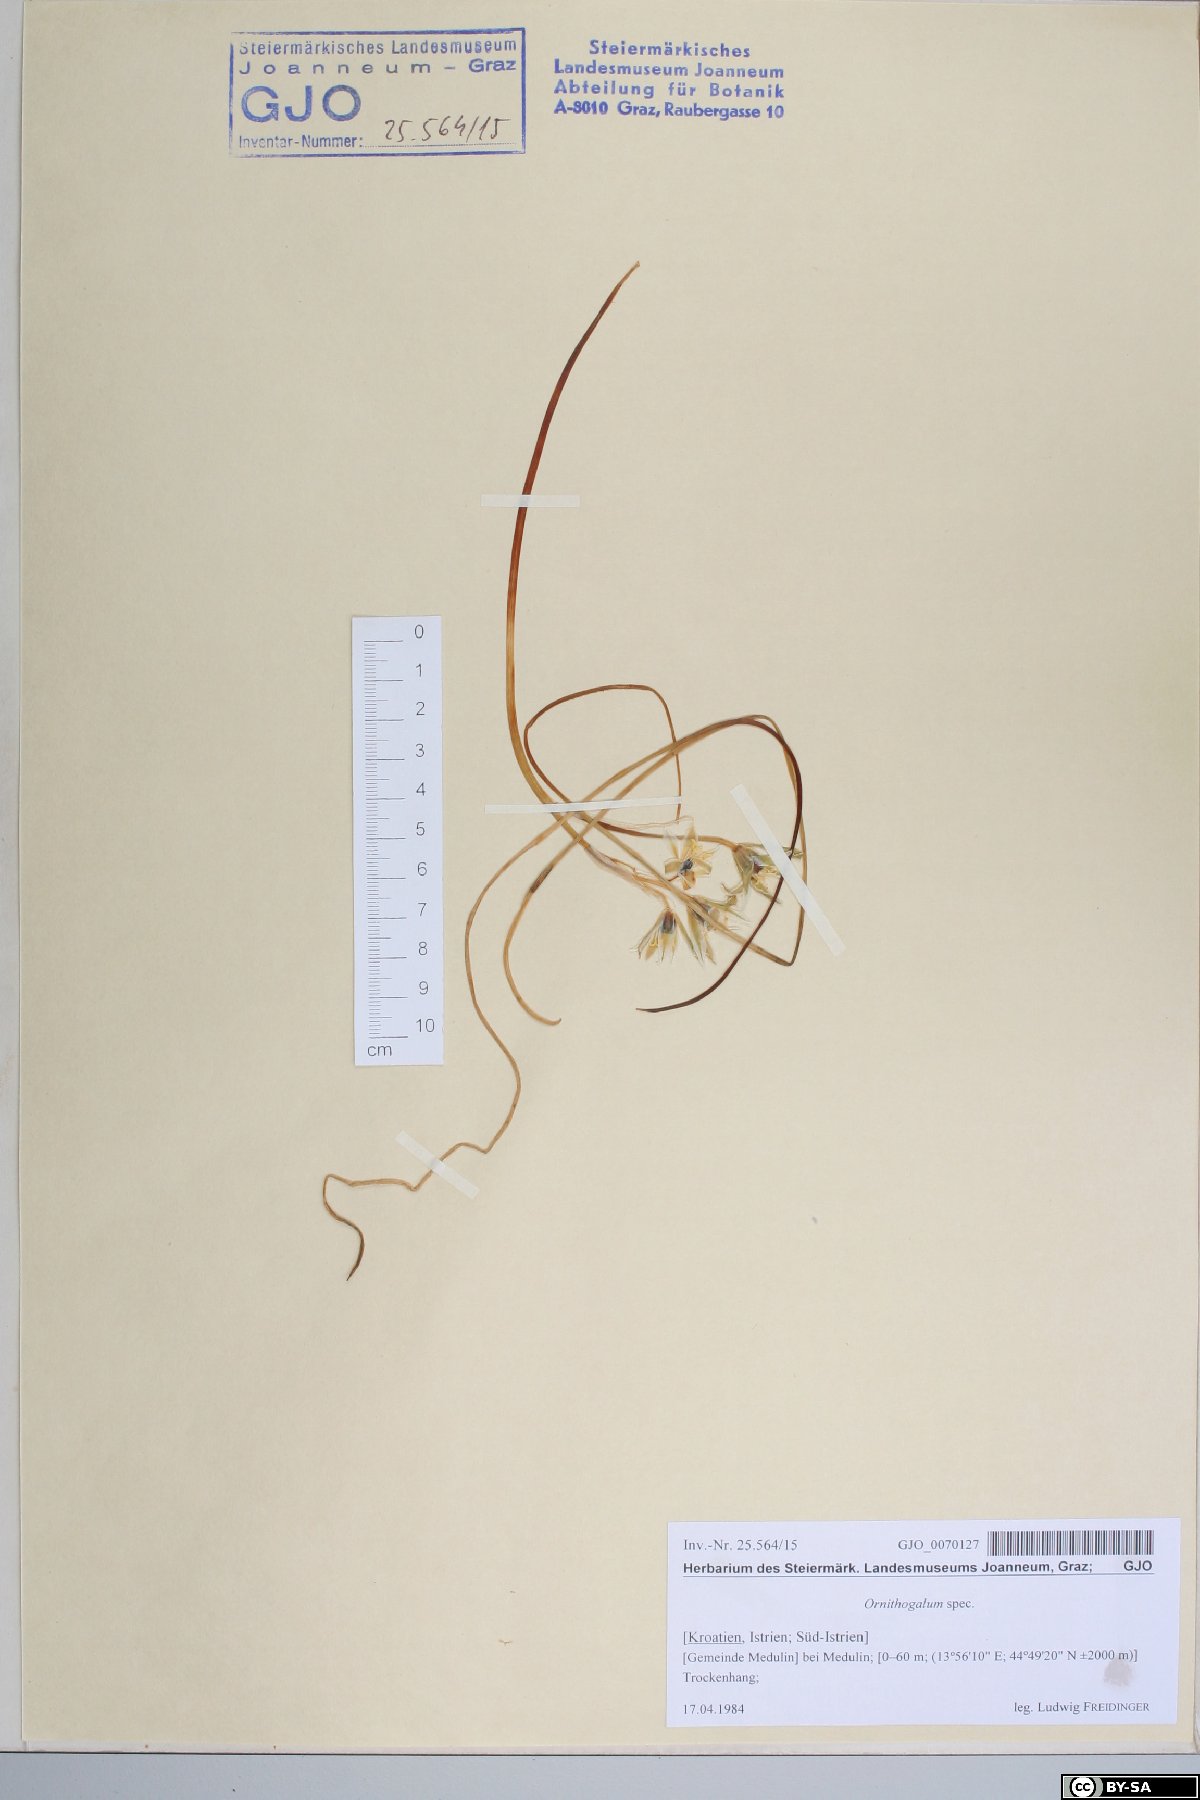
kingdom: Plantae
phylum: Tracheophyta
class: Liliopsida
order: Asparagales
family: Asparagaceae
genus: Ornithogalum
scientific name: Ornithogalum
